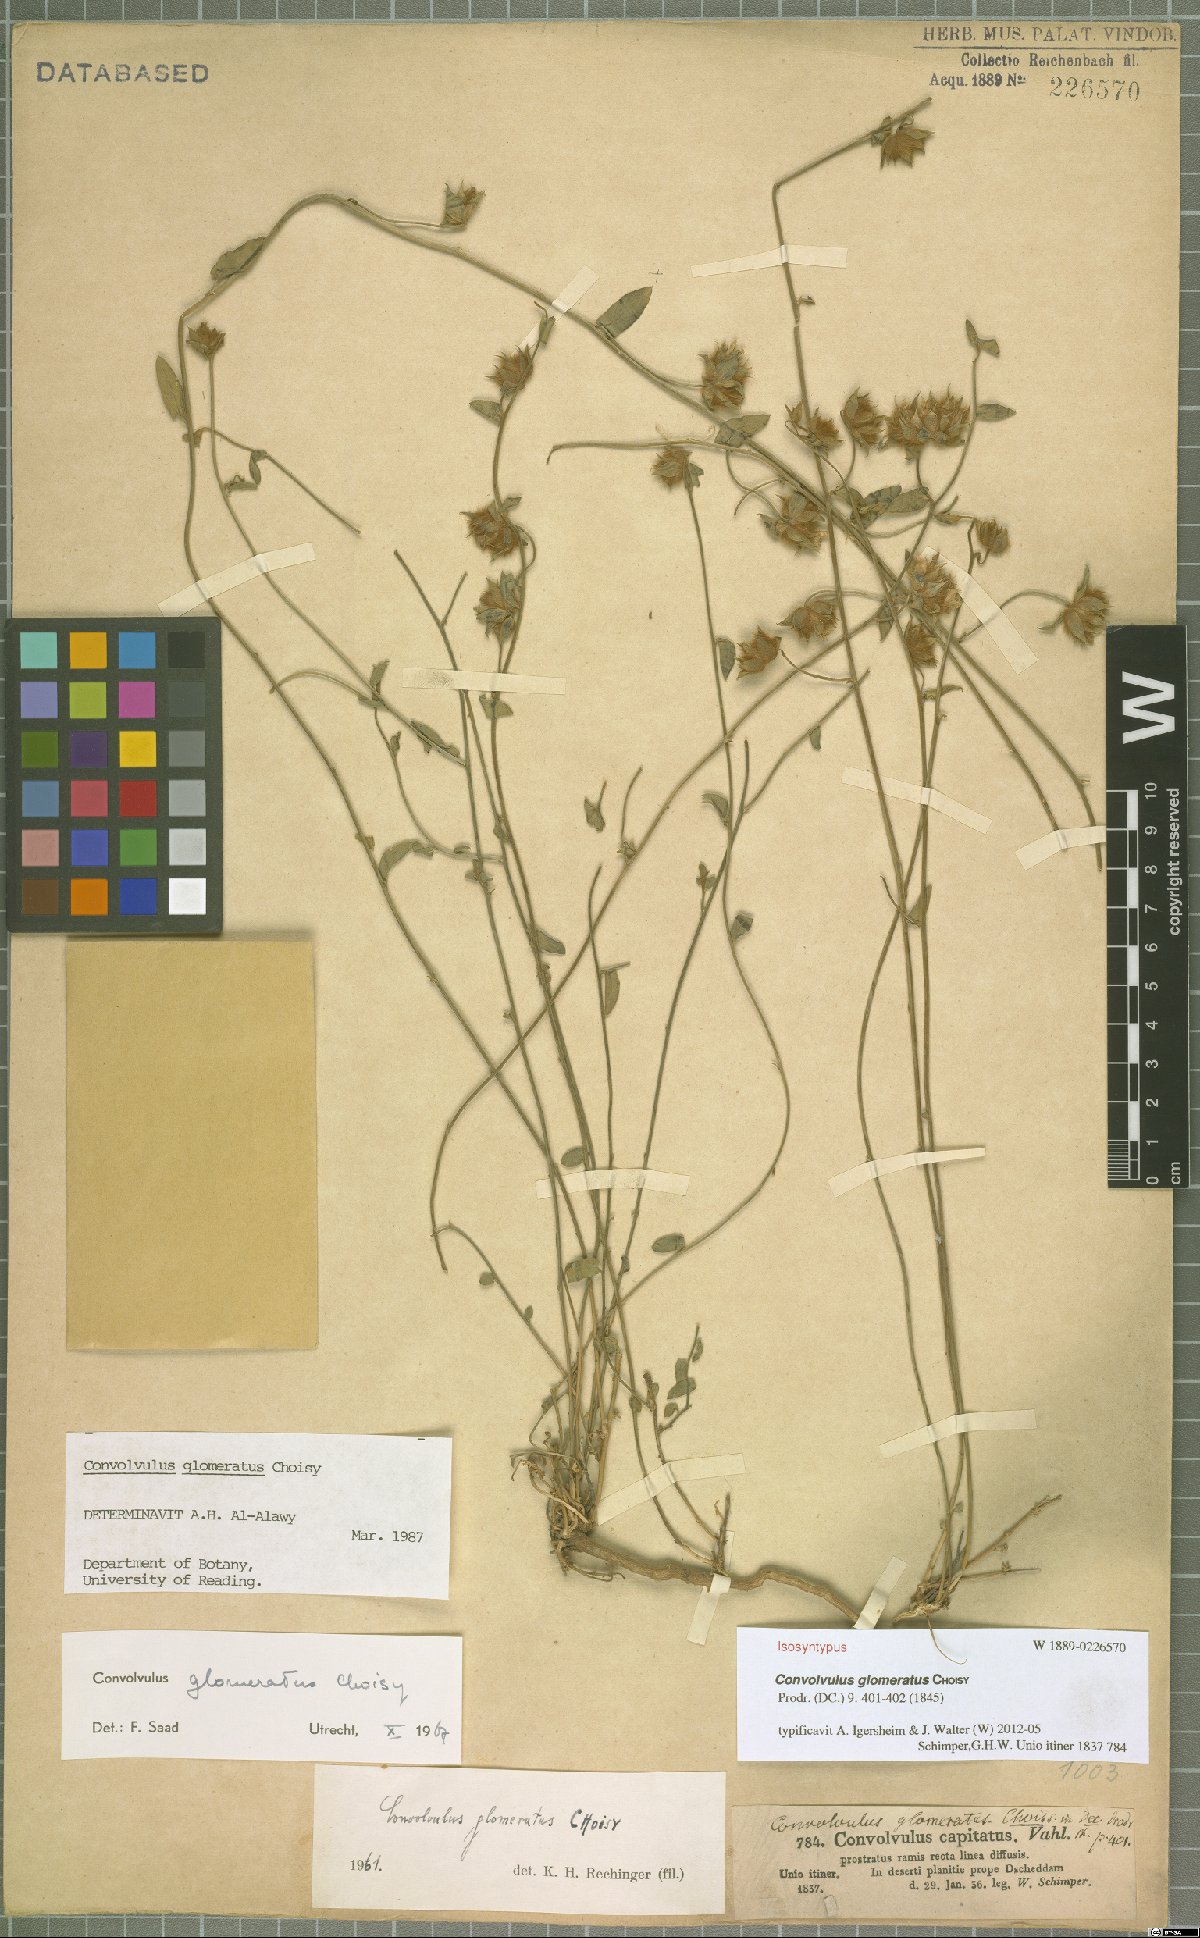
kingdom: Plantae
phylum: Tracheophyta
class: Magnoliopsida
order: Solanales
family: Convolvulaceae
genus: Convolvulus
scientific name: Convolvulus glomeratus
